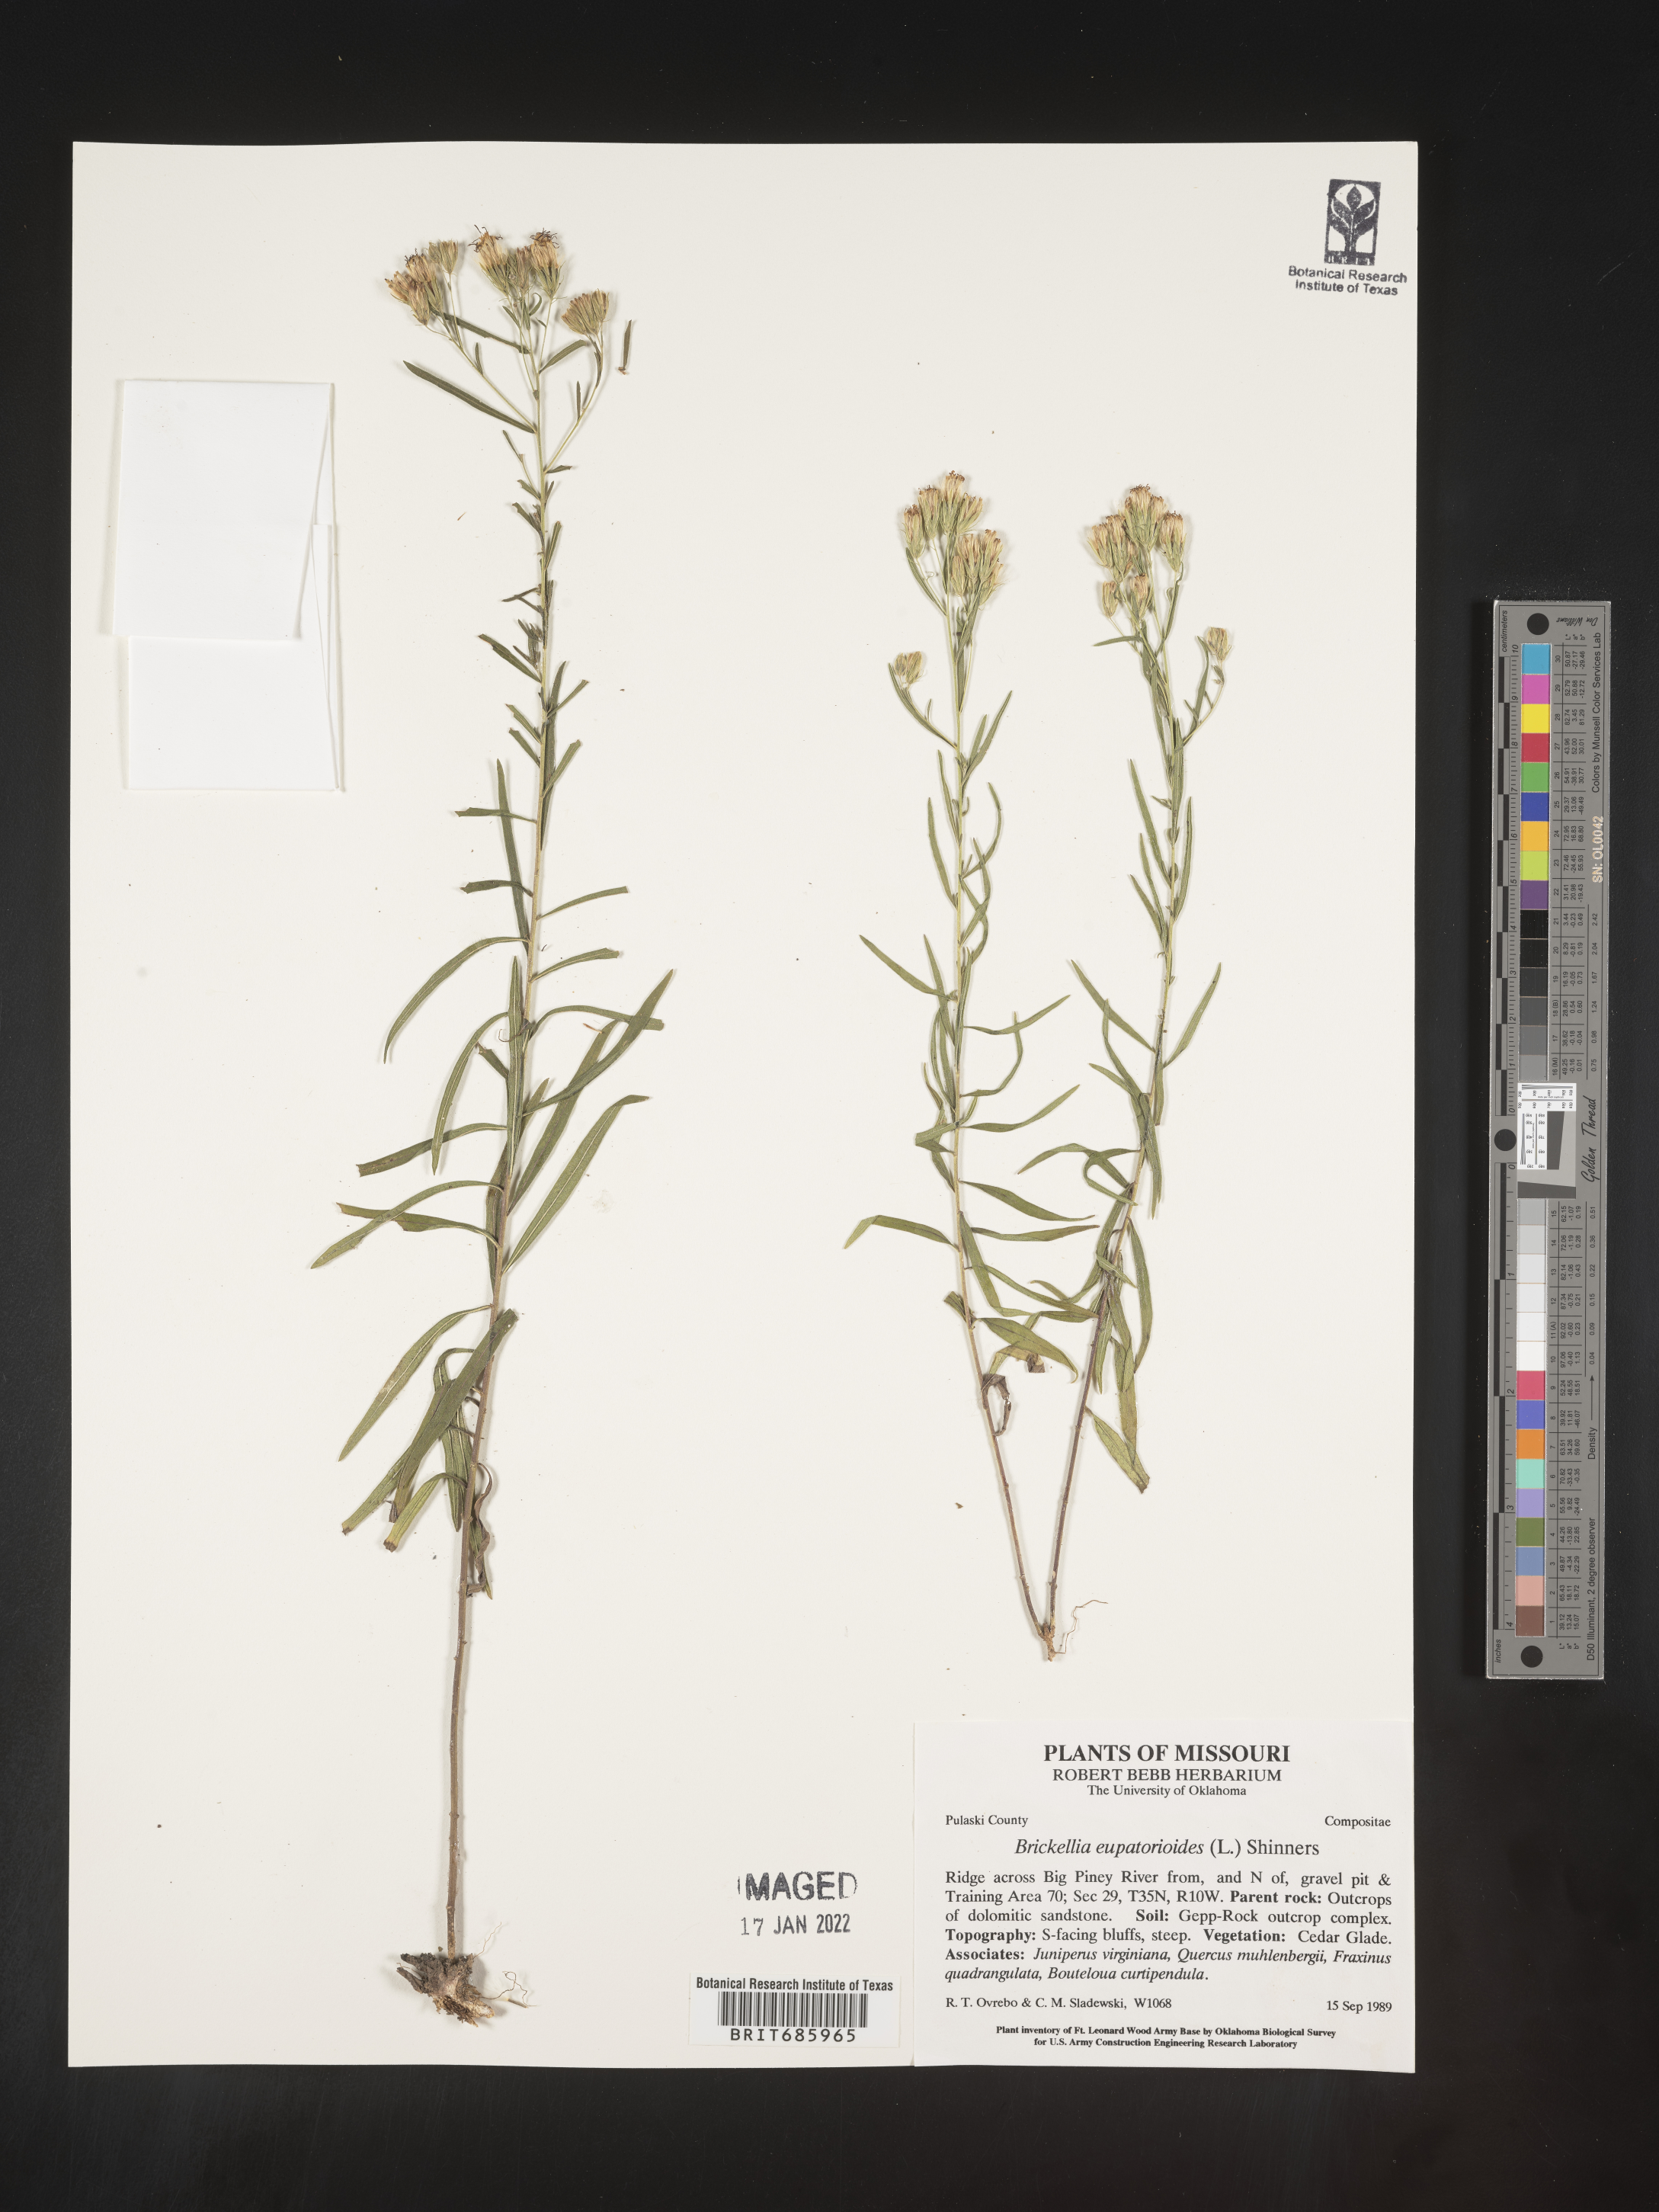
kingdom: Plantae
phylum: Tracheophyta
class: Magnoliopsida
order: Asterales
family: Asteraceae
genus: Brickellia
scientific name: Brickellia eupatorioides
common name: False boneset
